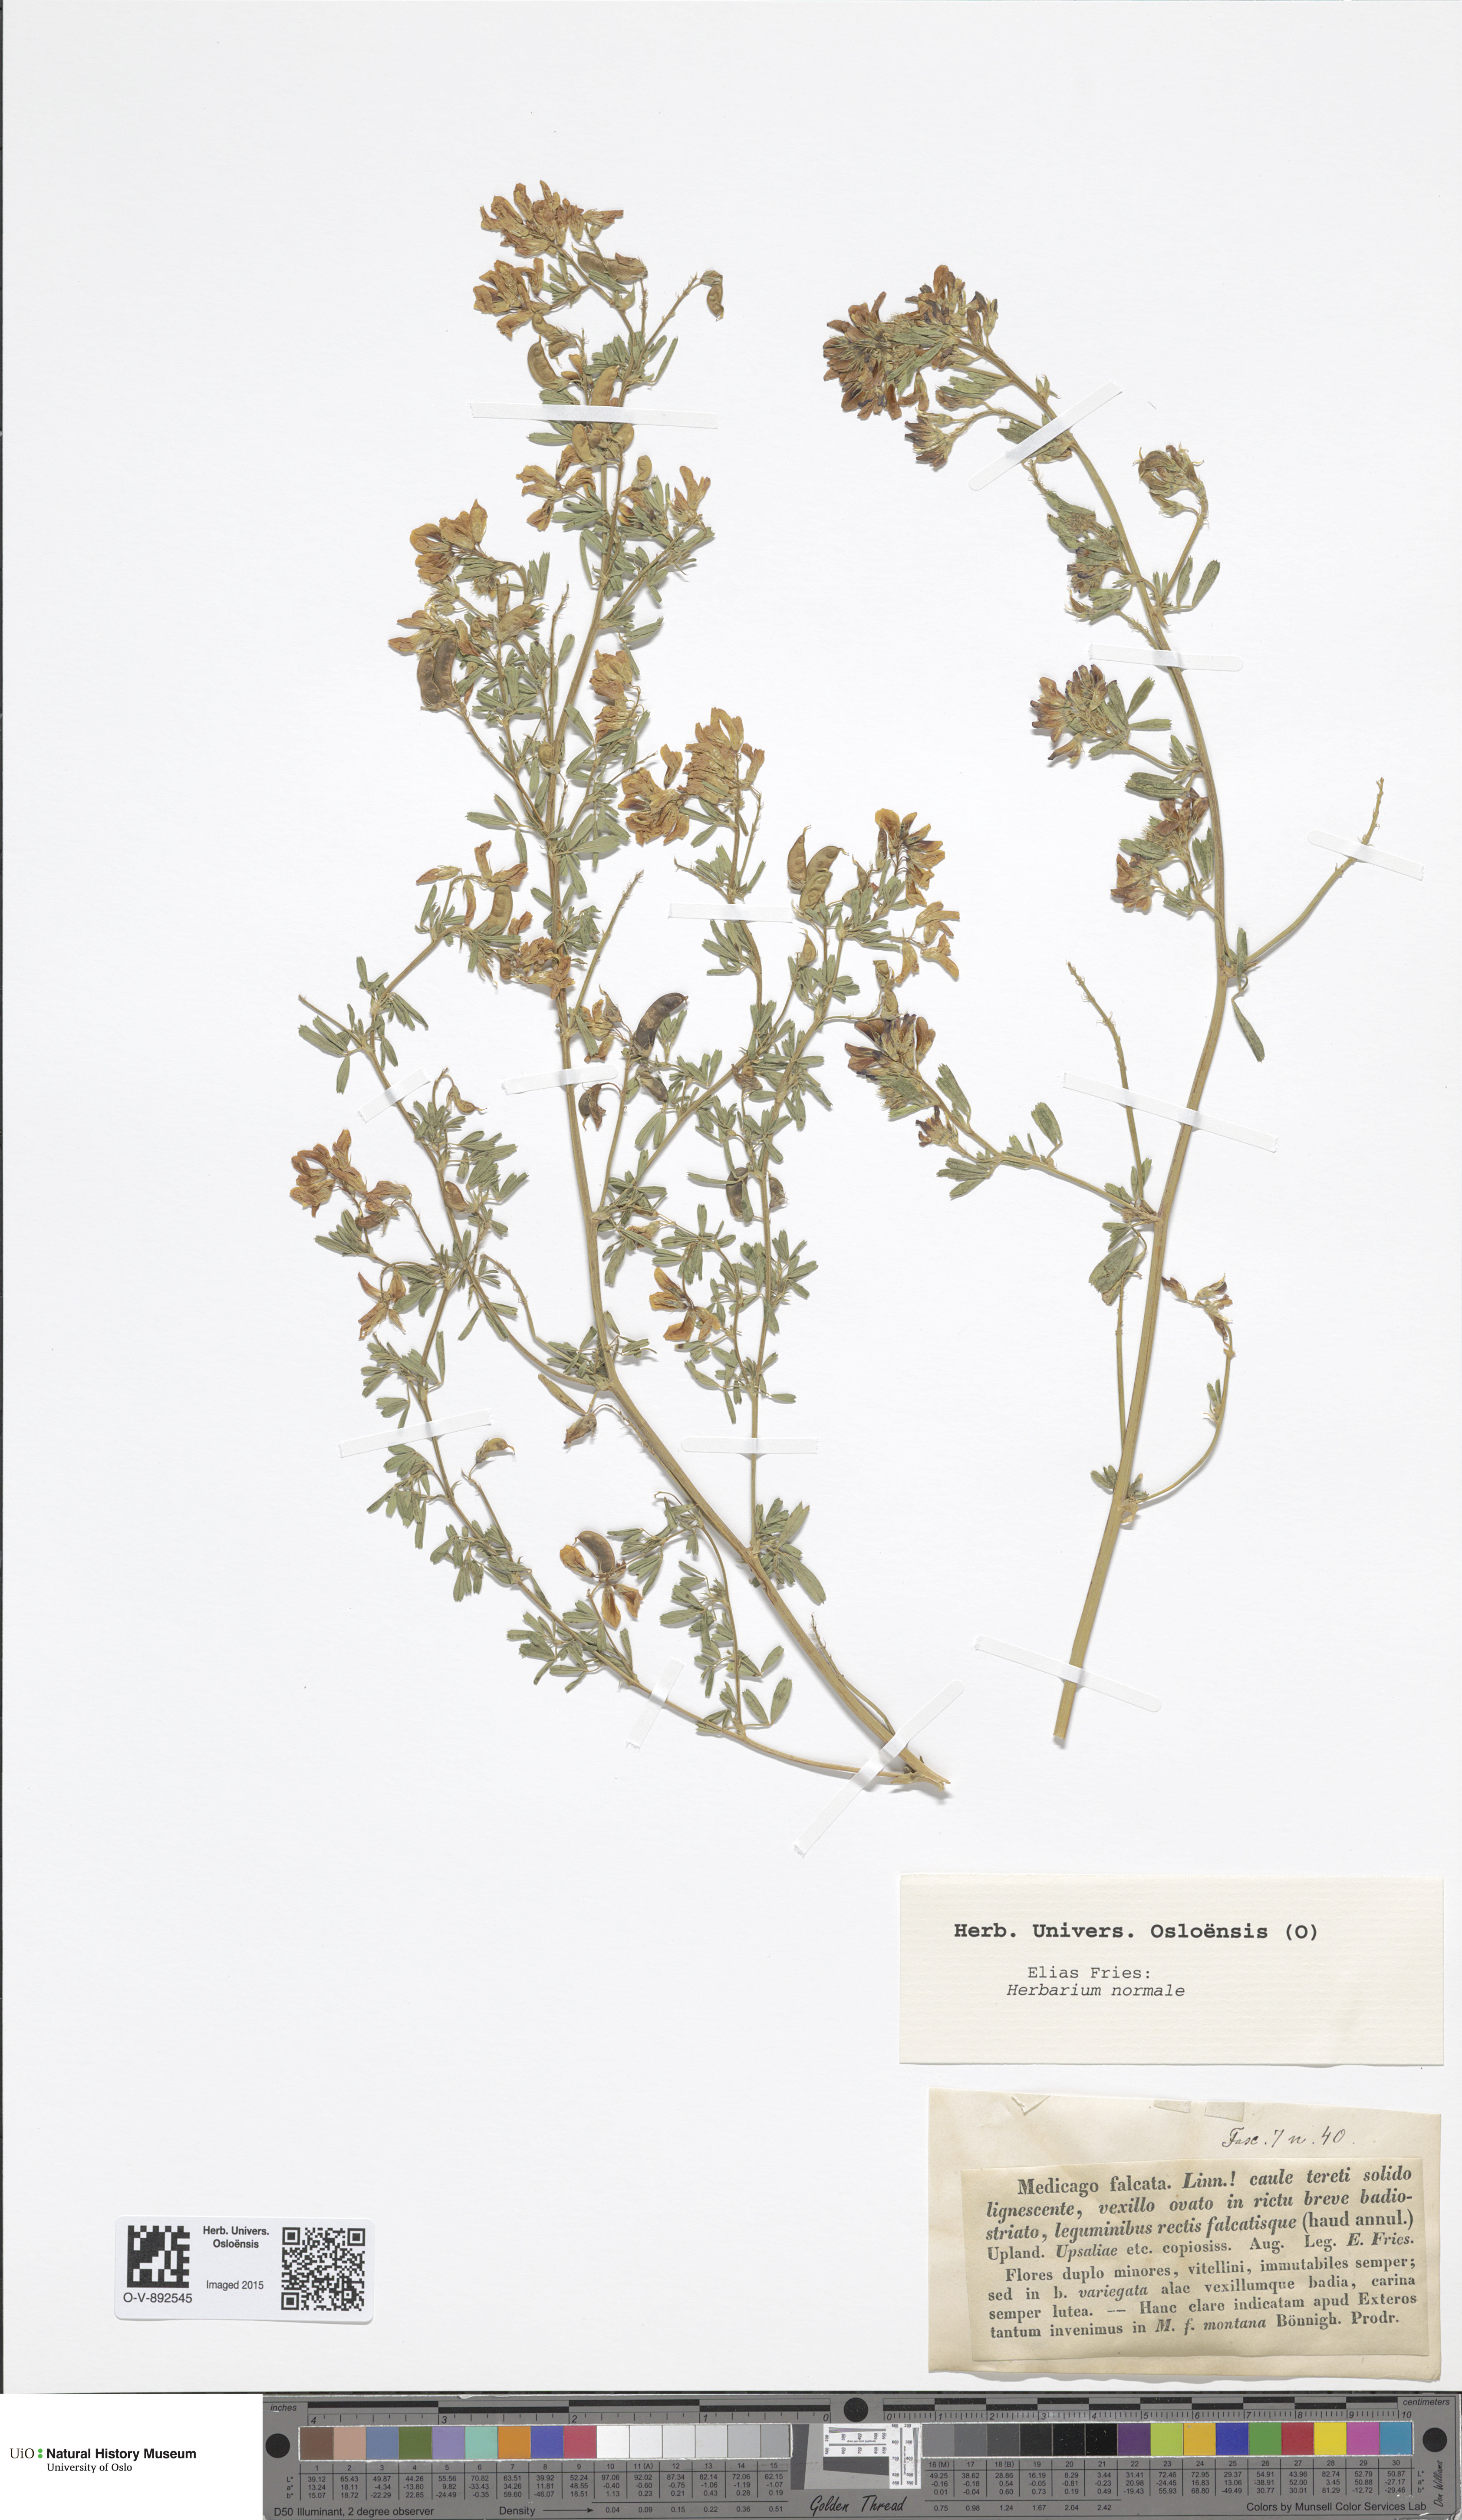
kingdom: Plantae
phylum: Tracheophyta
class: Magnoliopsida
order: Fabales
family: Fabaceae
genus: Medicago
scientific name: Medicago falcata
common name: Sickle medick
